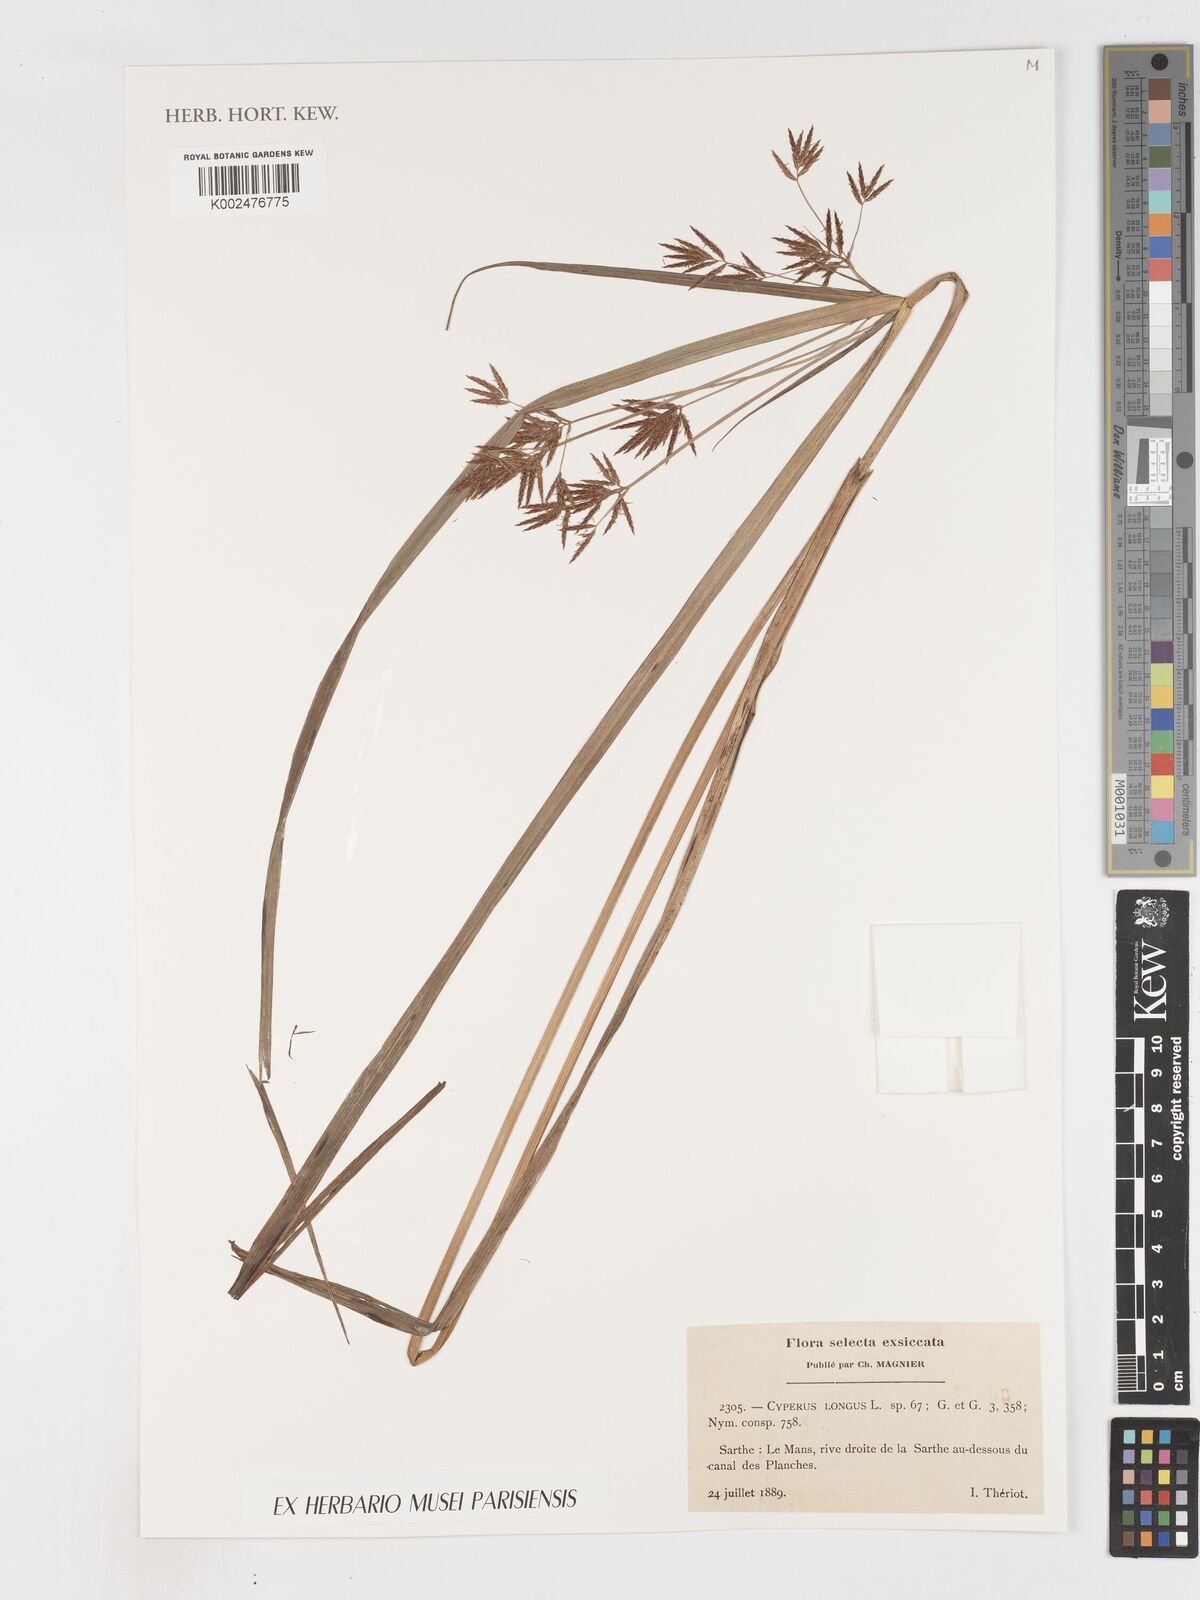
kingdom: Plantae
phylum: Tracheophyta
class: Liliopsida
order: Poales
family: Cyperaceae
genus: Cyperus
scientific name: Cyperus longus
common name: Galingale
